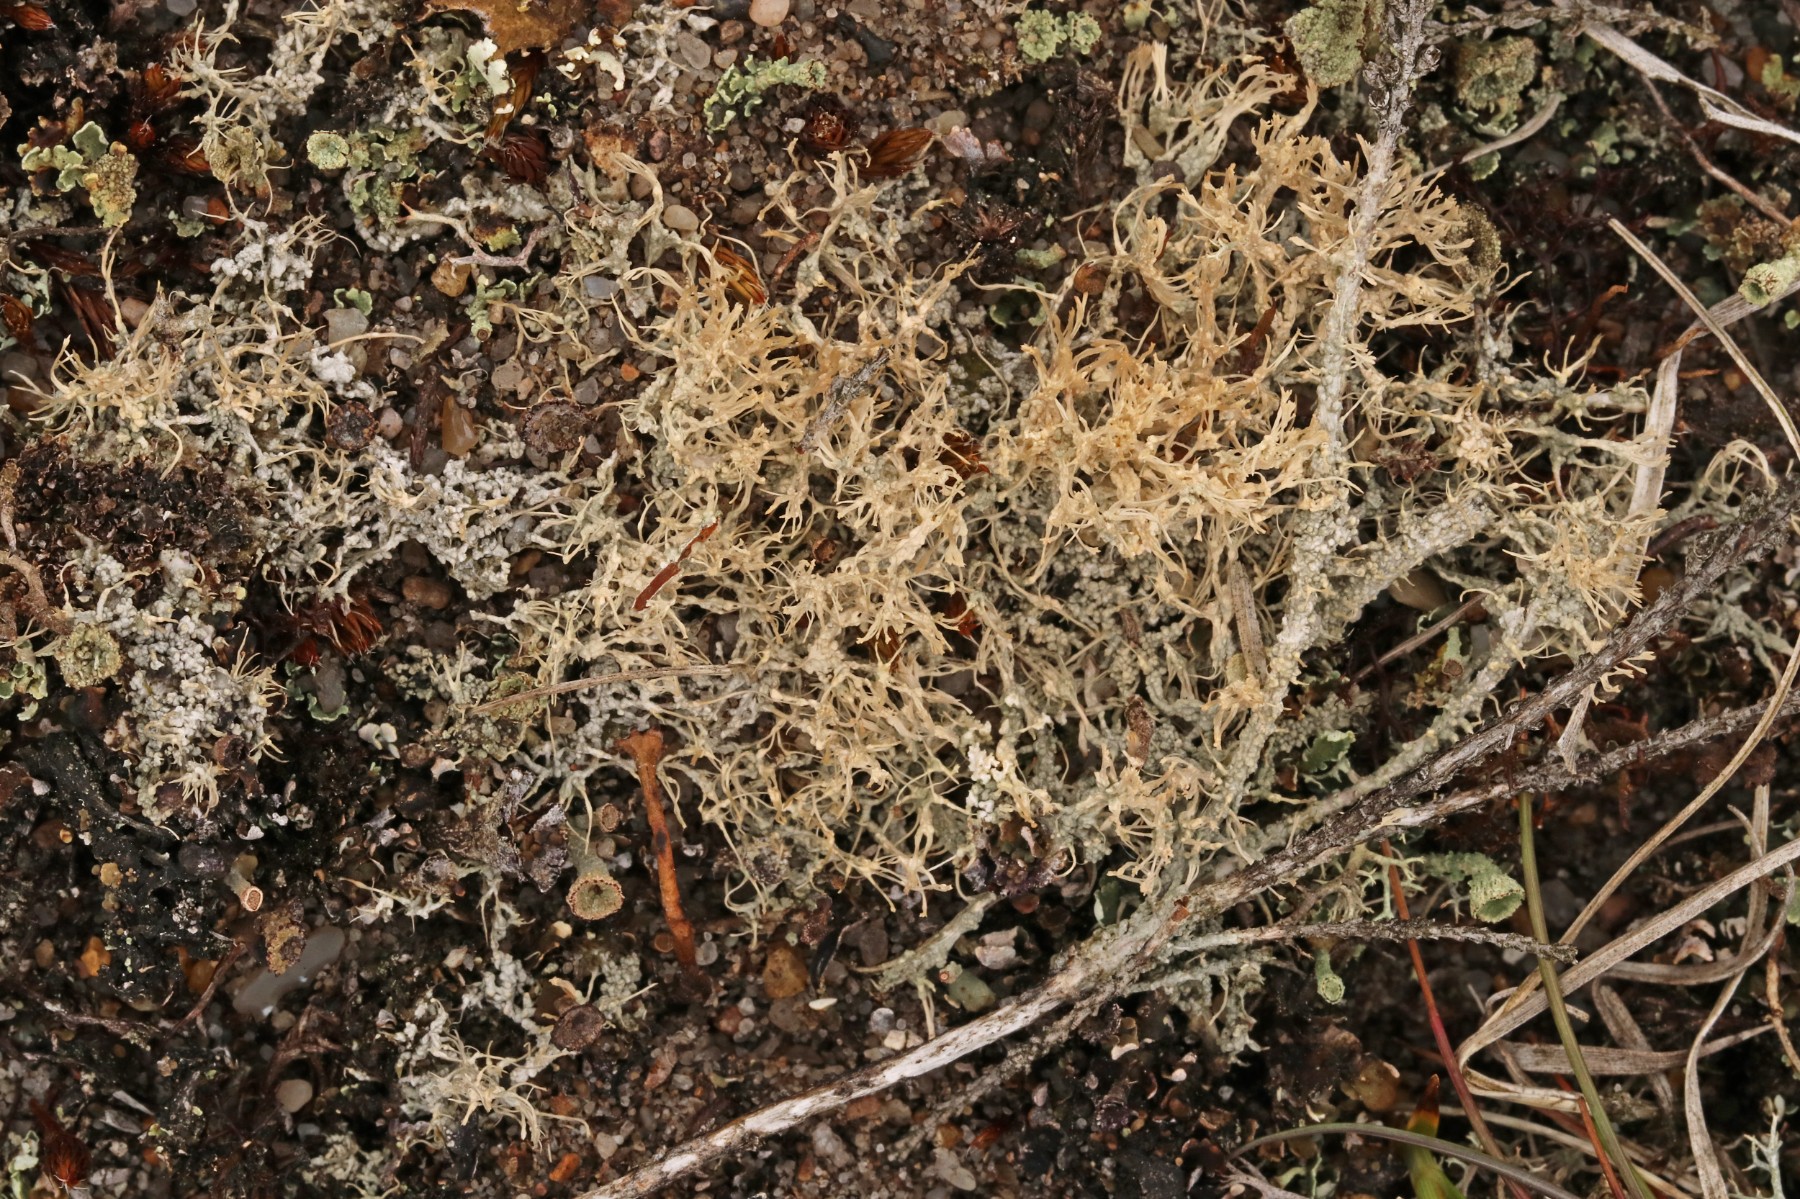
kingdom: Fungi
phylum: Ascomycota
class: Lecanoromycetes
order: Pertusariales
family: Ochrolechiaceae
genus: Ochrolechia
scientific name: Ochrolechia frigida
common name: fjeld-blegskivelav
